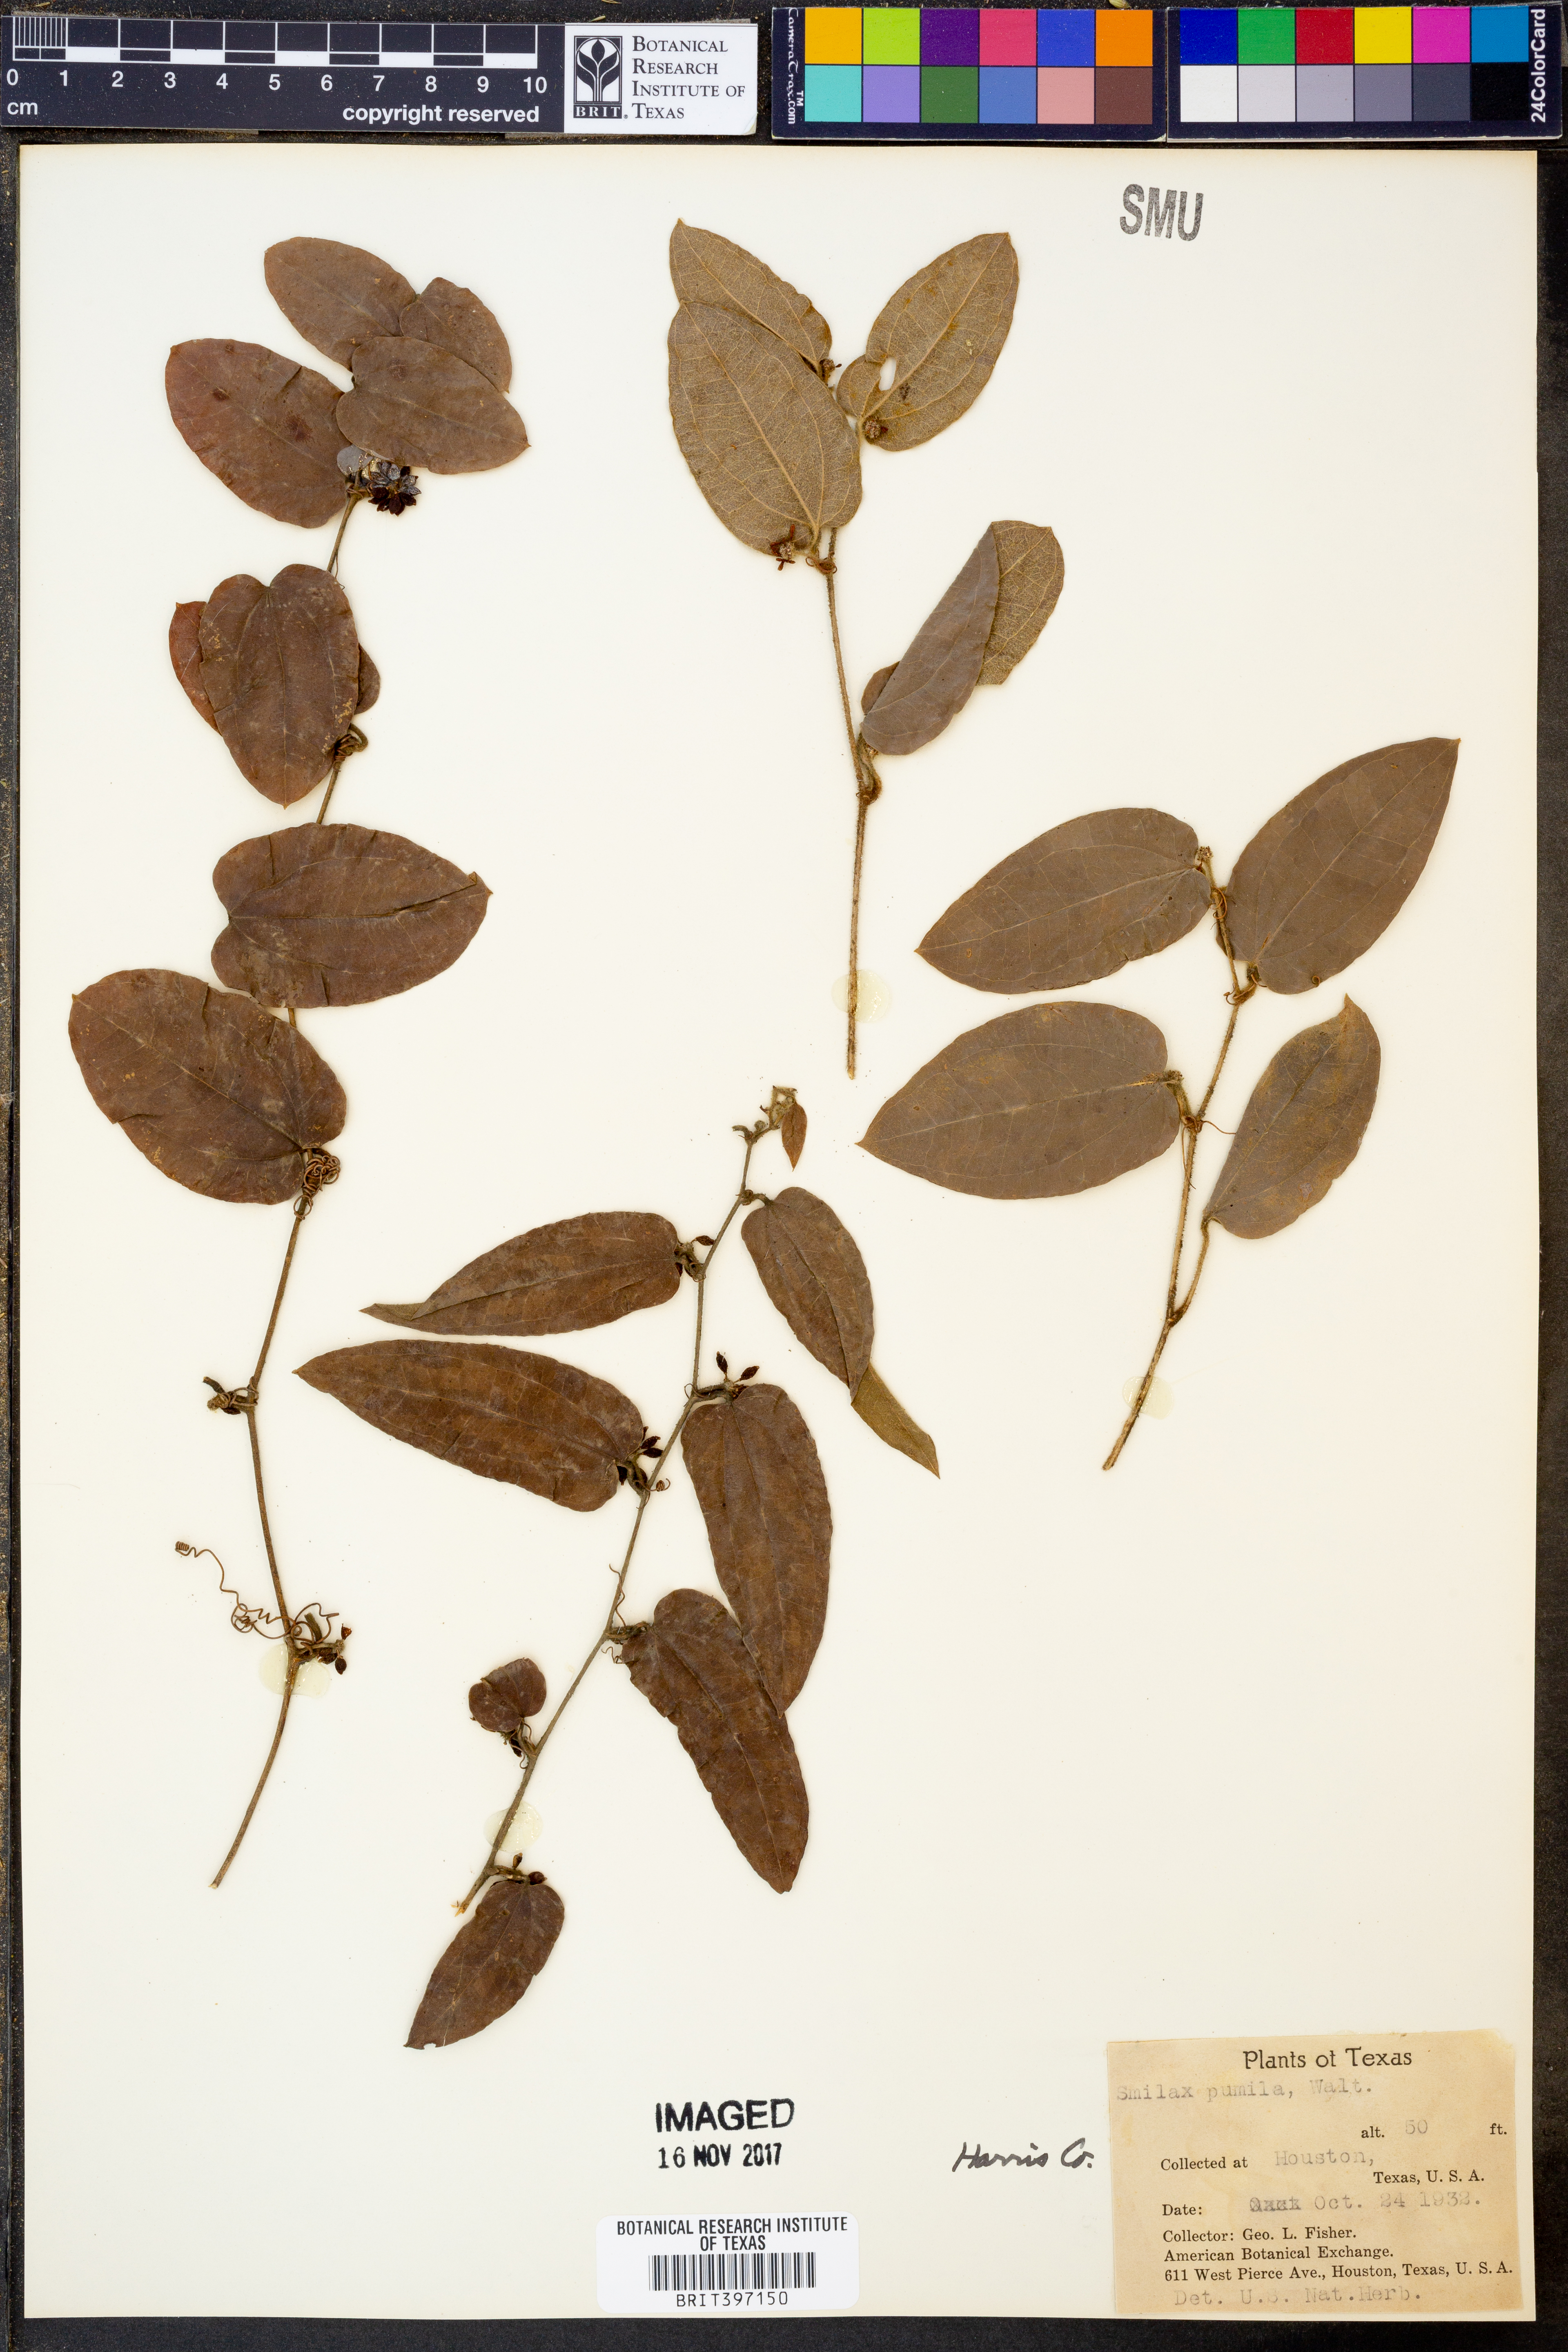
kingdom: Plantae
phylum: Tracheophyta
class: Liliopsida
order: Liliales
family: Smilacaceae
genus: Smilax
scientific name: Smilax pumila
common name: Sarsaparilla-vine
